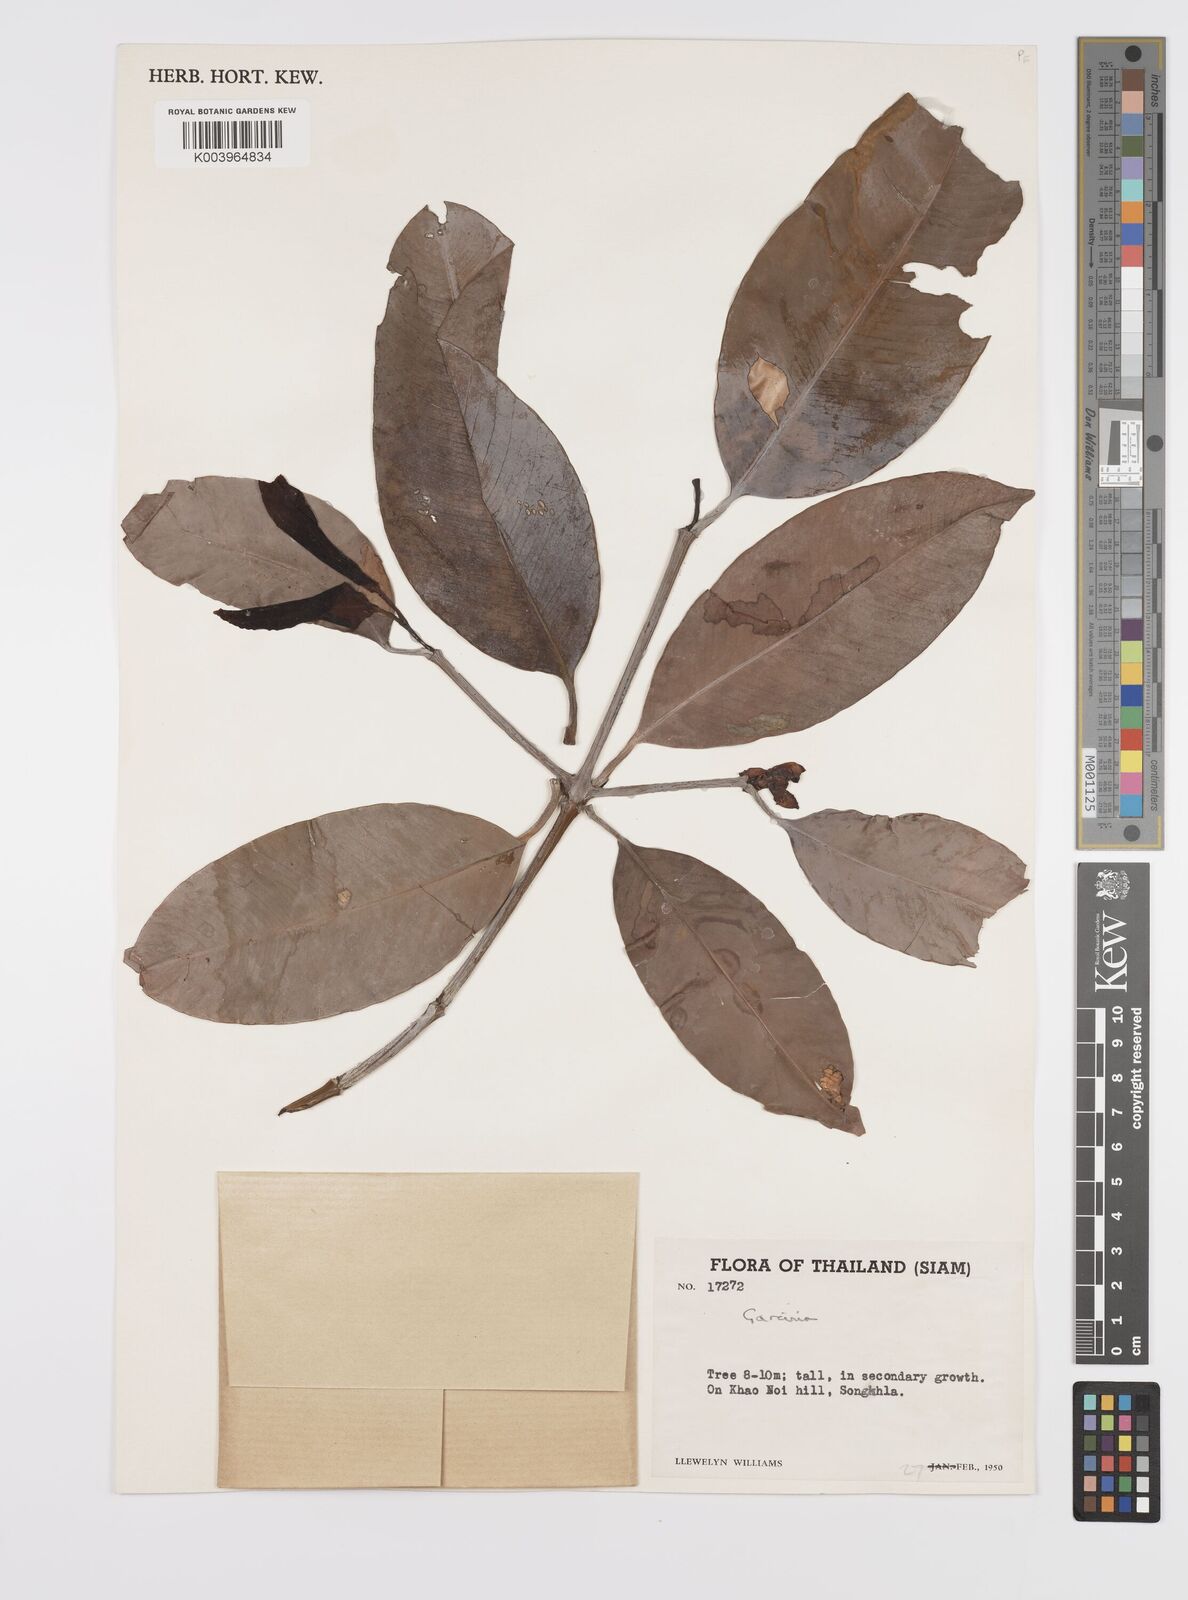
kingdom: Plantae
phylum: Tracheophyta
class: Magnoliopsida
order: Malpighiales
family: Clusiaceae
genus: Garcinia
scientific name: Garcinia
